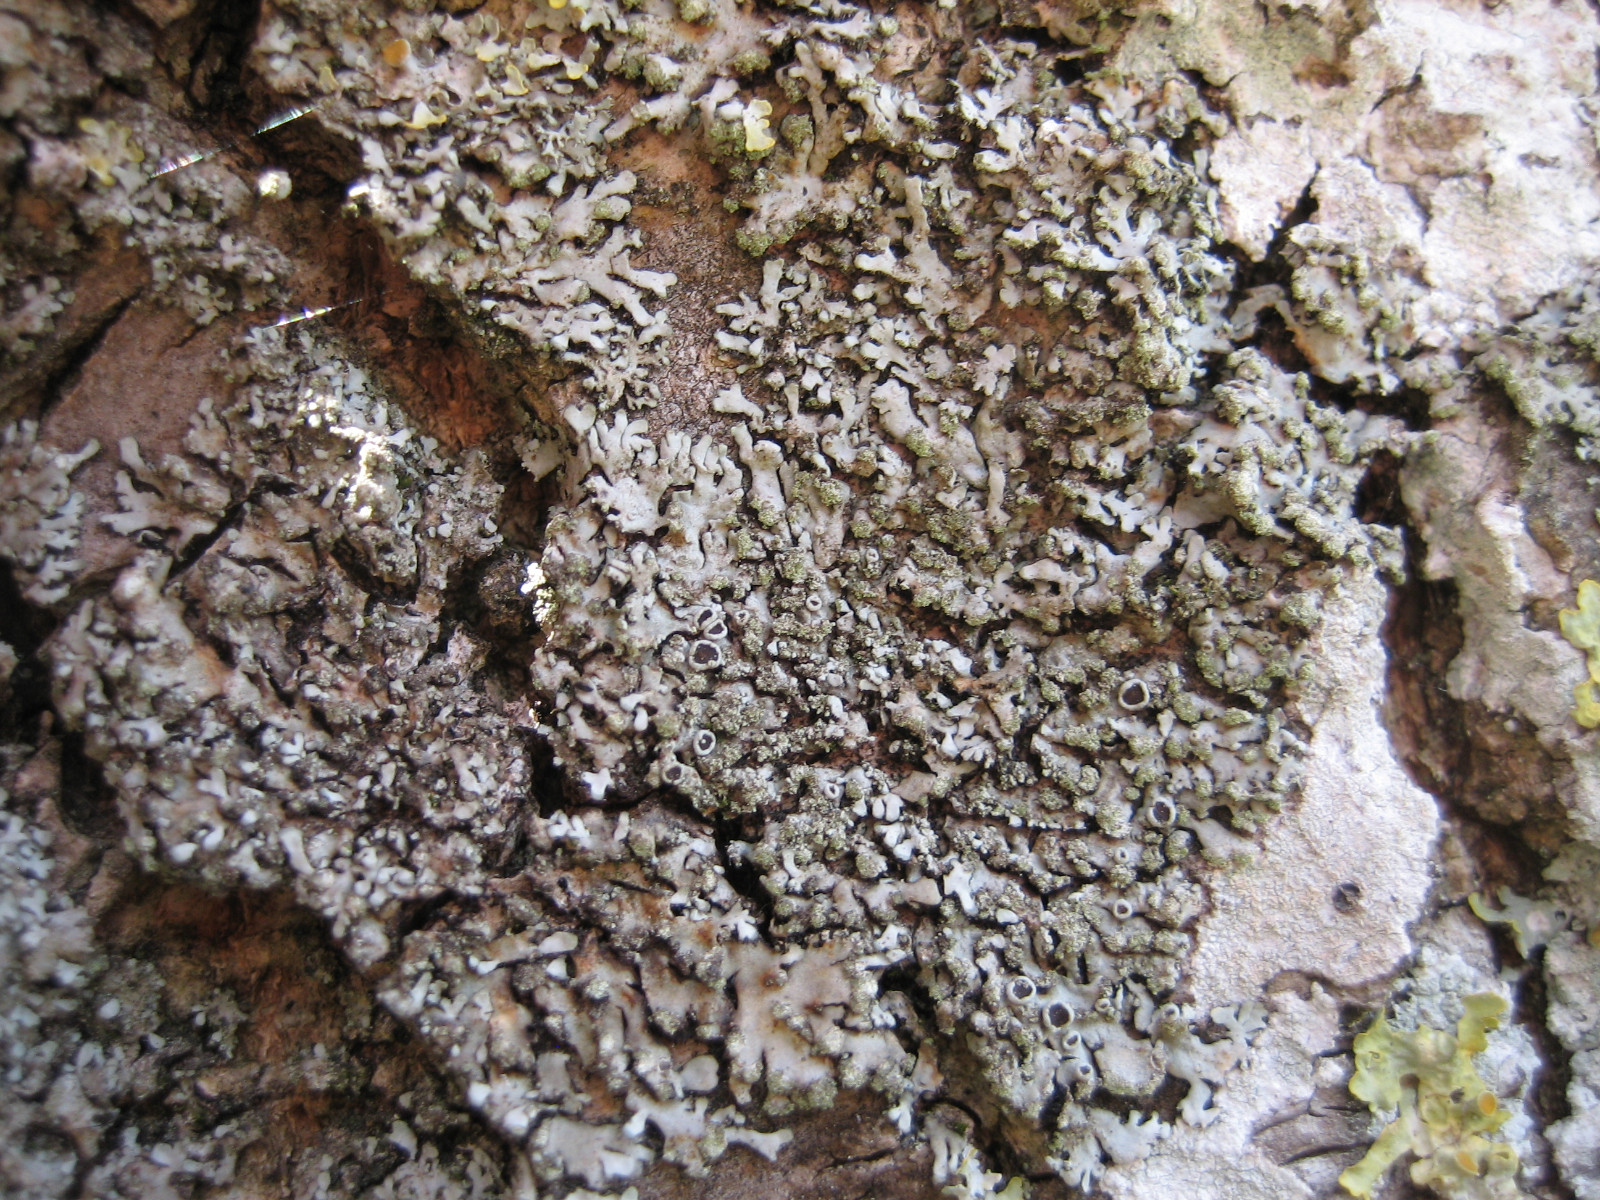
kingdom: Fungi
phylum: Ascomycota
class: Lecanoromycetes
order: Caliciales
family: Physciaceae
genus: Phaeophyscia
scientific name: Phaeophyscia orbicularis
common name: grågrøn rosetlav
